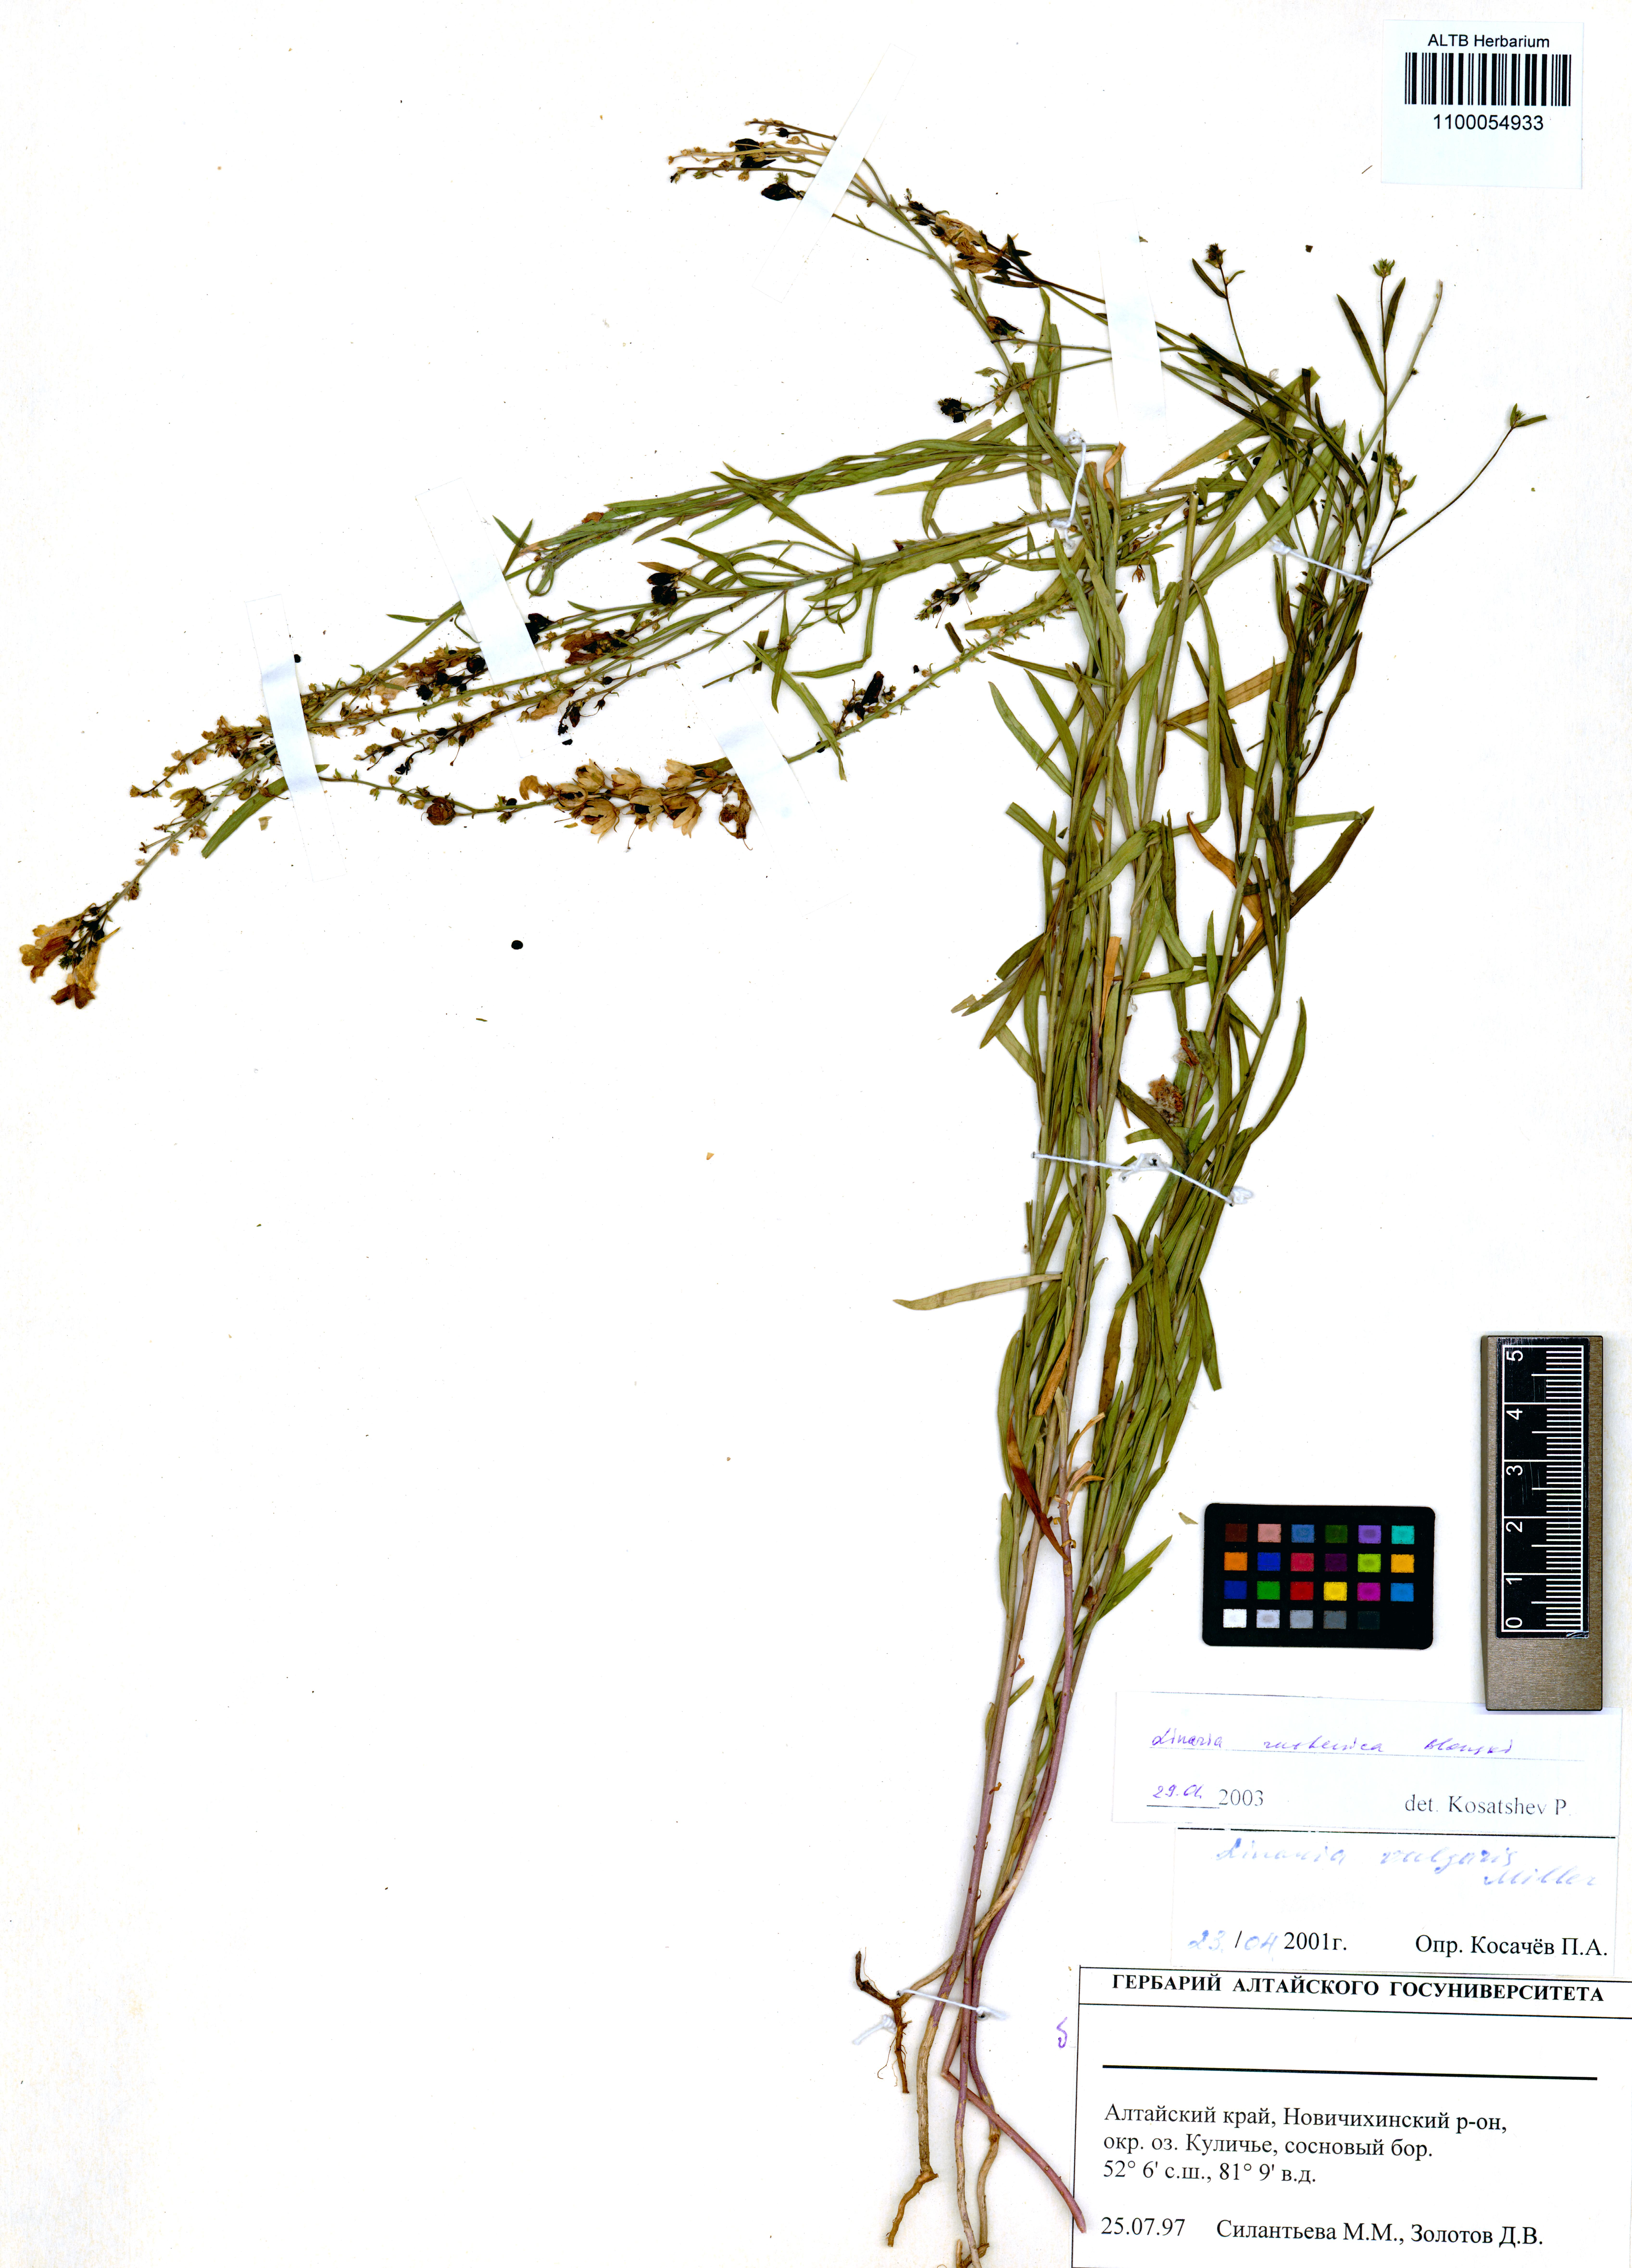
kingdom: Plantae
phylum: Tracheophyta
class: Magnoliopsida
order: Lamiales
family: Plantaginaceae
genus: Linaria
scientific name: Linaria biebersteinii
